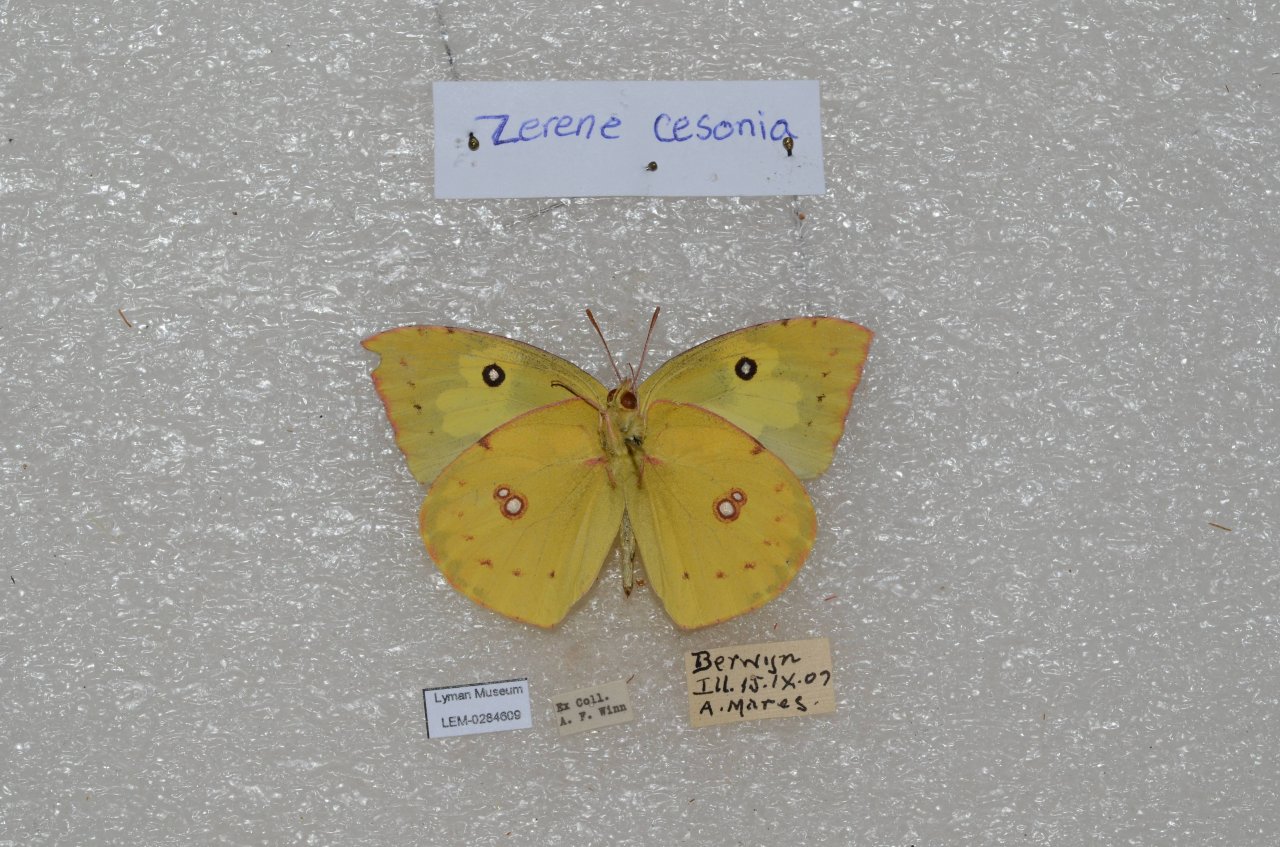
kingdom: Animalia
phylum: Arthropoda
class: Insecta
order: Lepidoptera
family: Pieridae
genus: Zerene
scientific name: Zerene cesonia
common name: Southern Dogface
